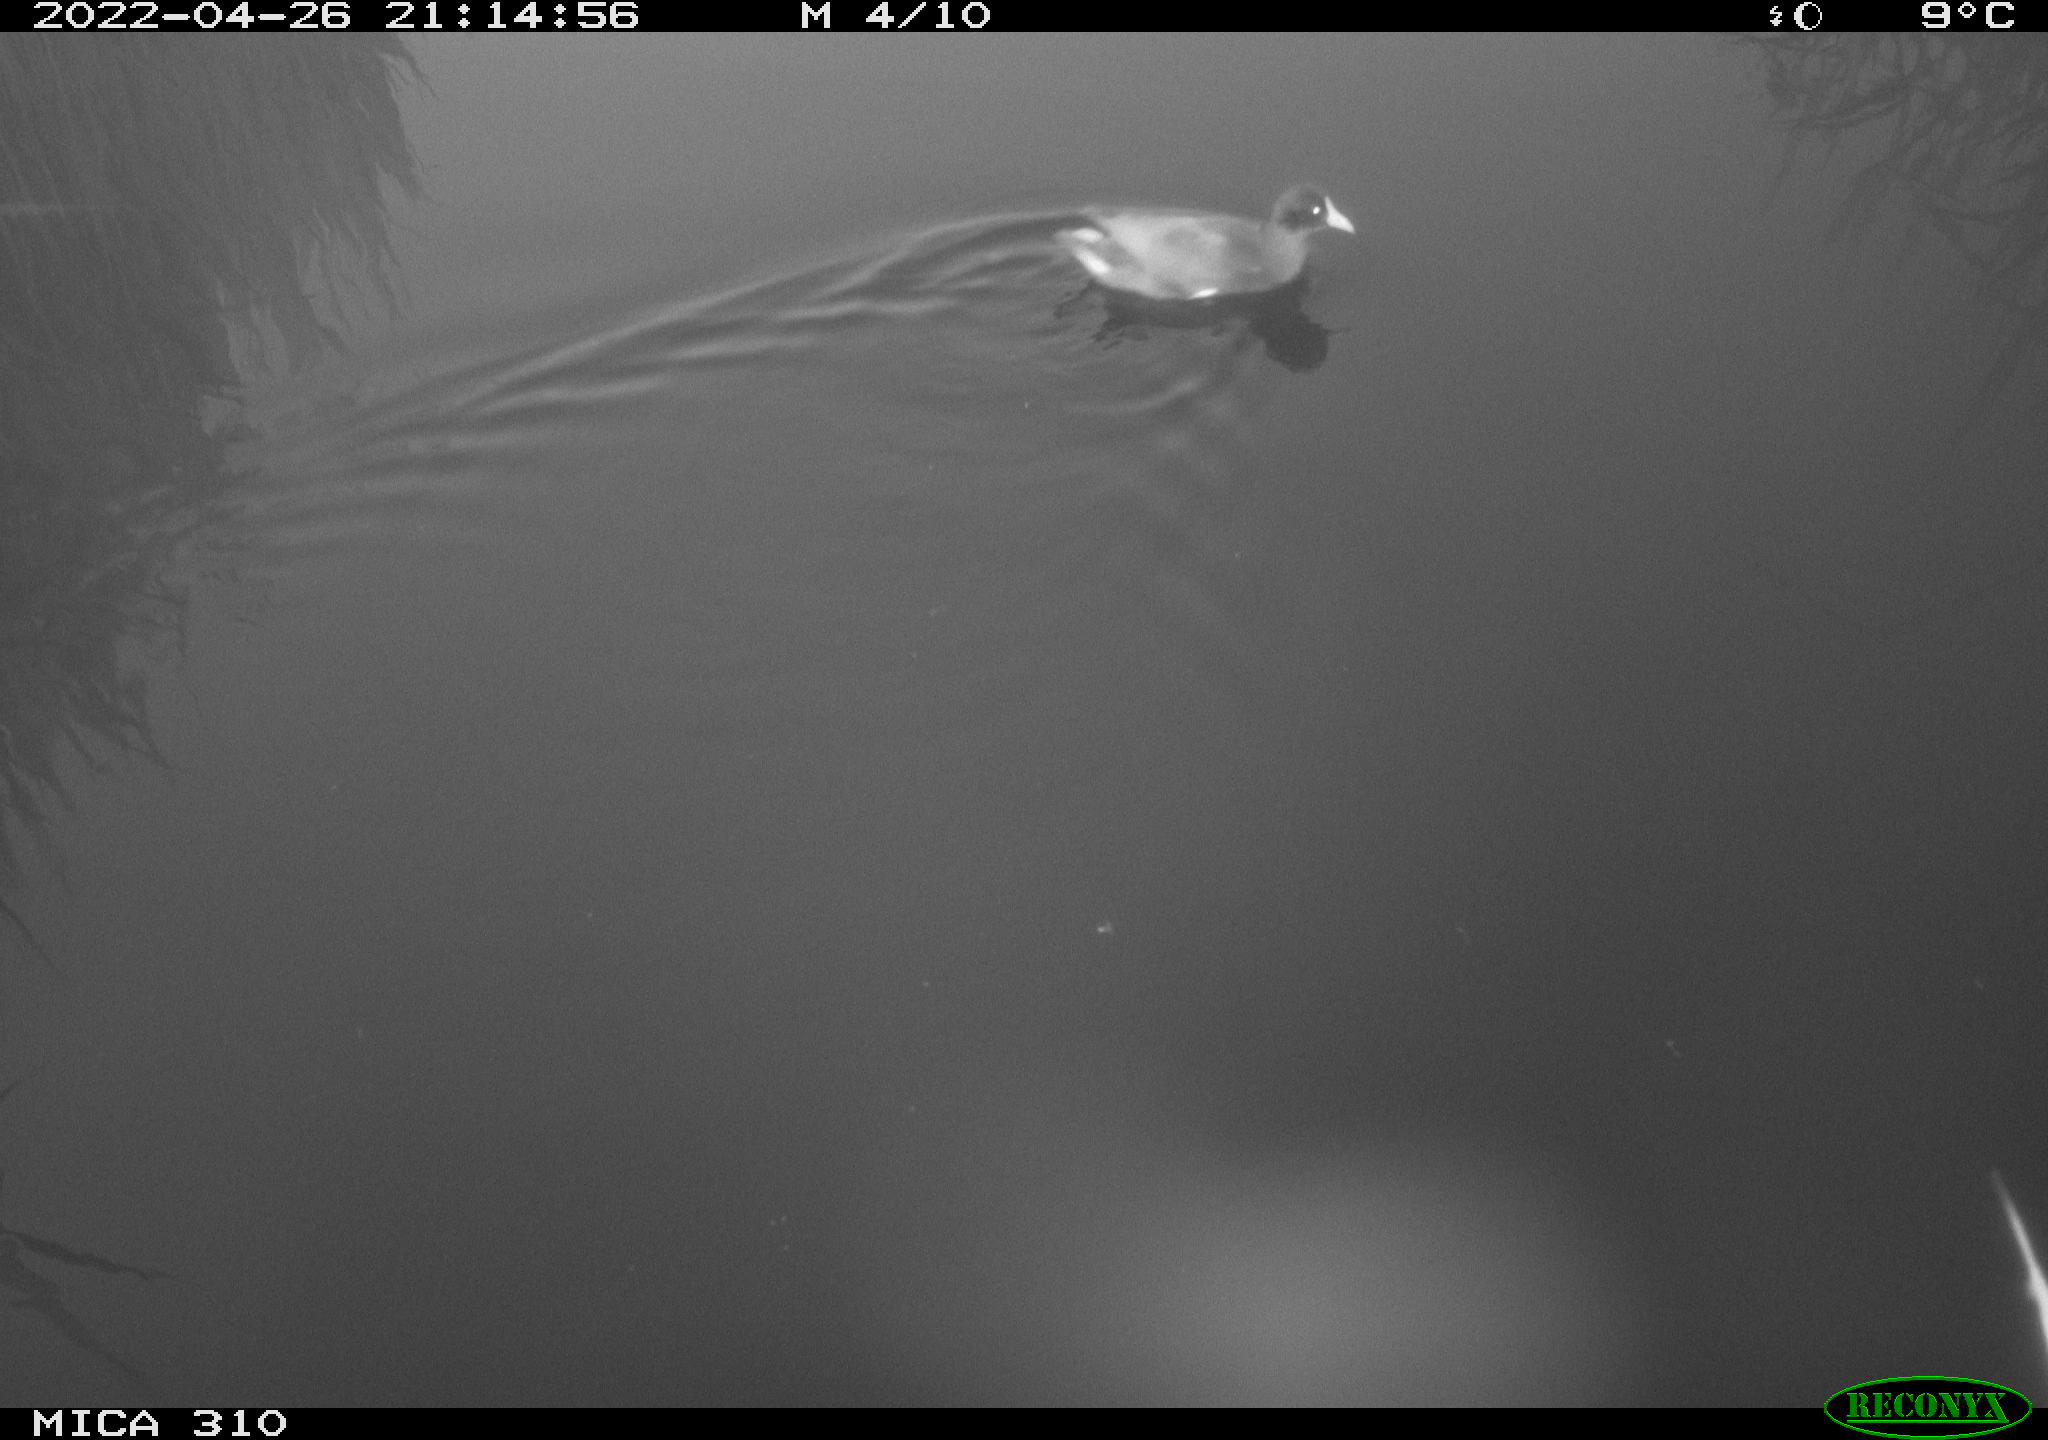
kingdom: Animalia
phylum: Chordata
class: Aves
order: Gruiformes
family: Rallidae
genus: Gallinula
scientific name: Gallinula chloropus
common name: Common moorhen
